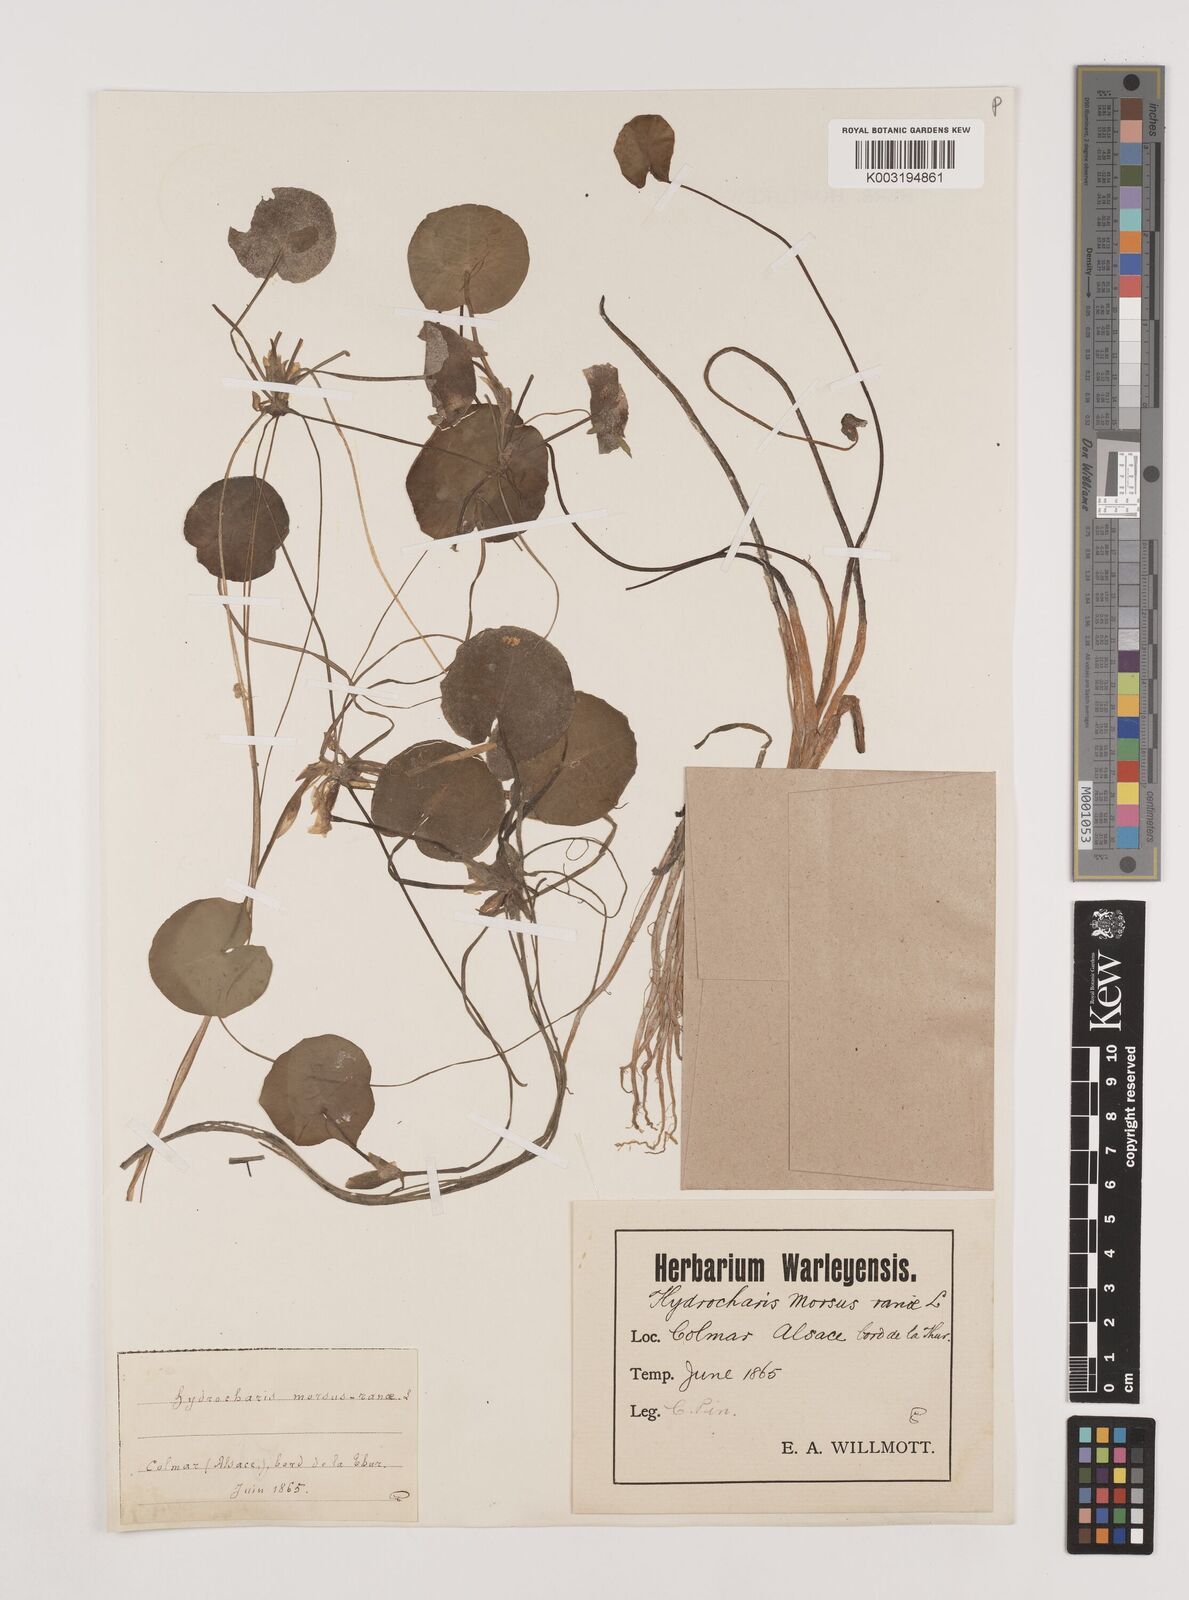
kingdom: Plantae
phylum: Tracheophyta
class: Liliopsida
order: Alismatales
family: Hydrocharitaceae
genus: Hydrocharis
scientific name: Hydrocharis morsus-ranae
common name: Frogbit
